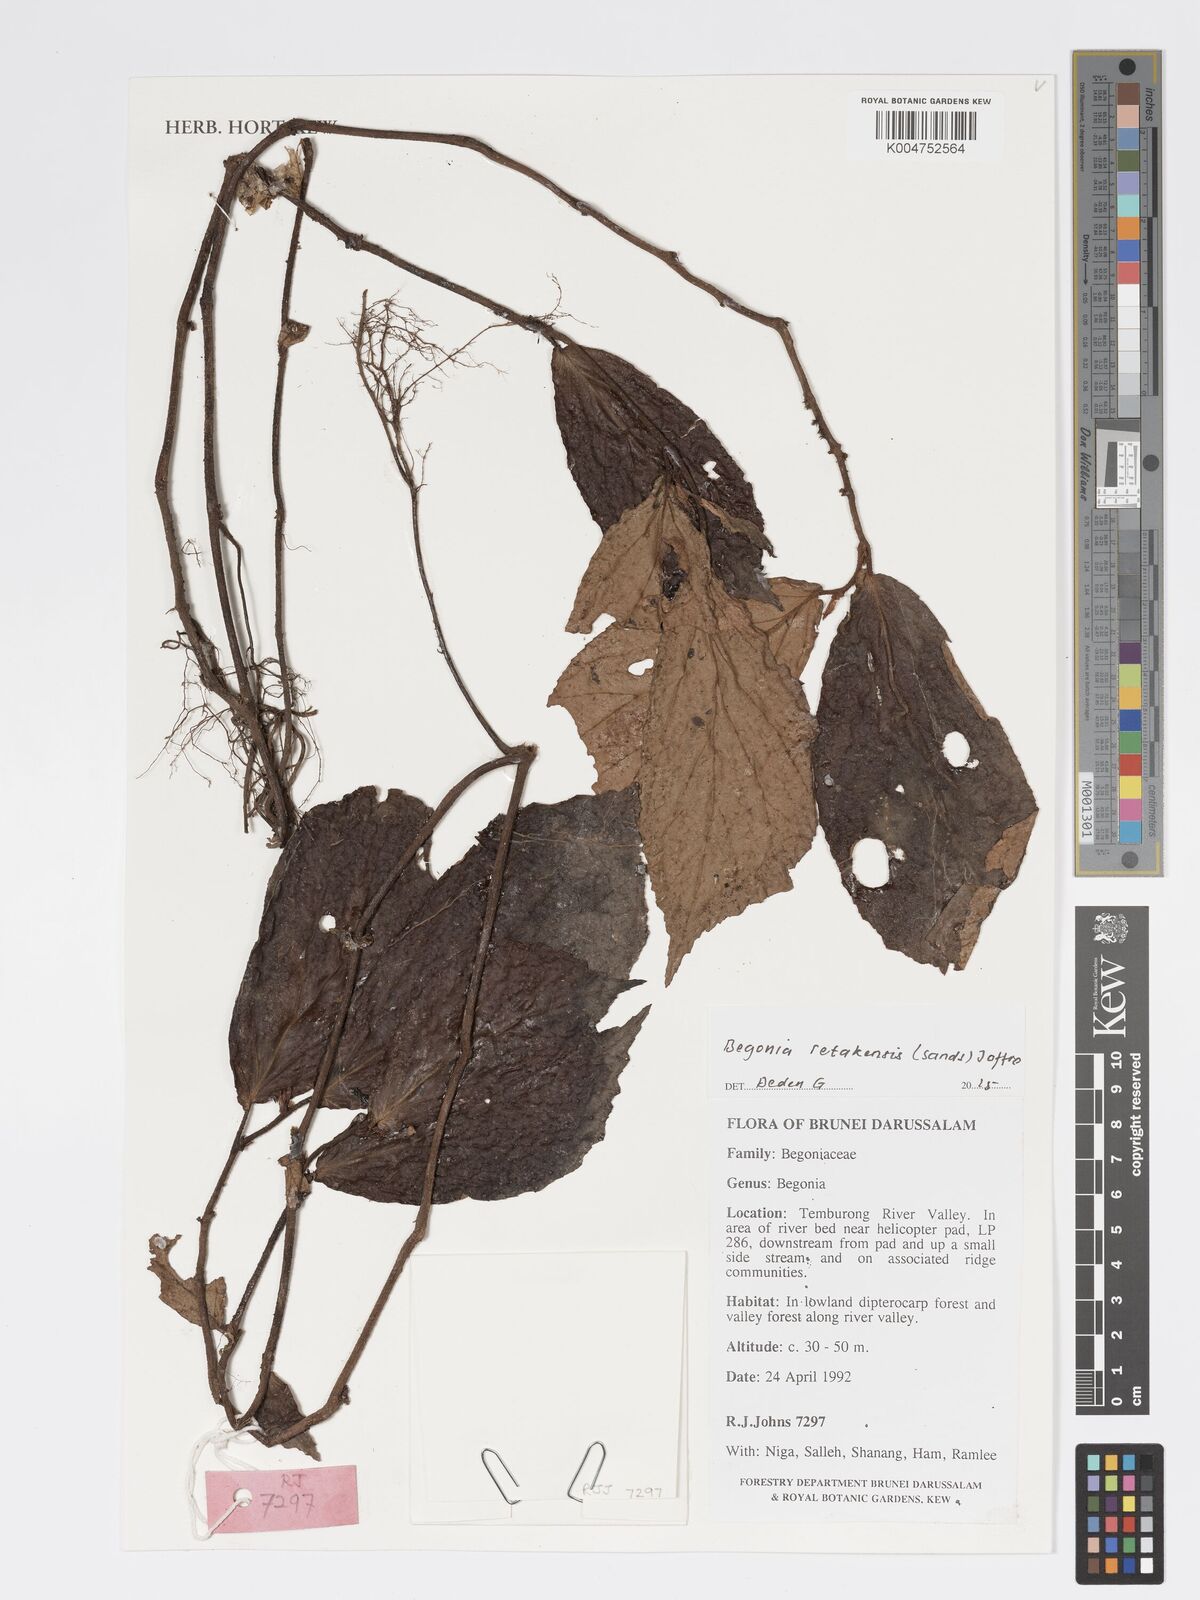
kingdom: Plantae
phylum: Tracheophyta
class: Magnoliopsida
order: Cucurbitales
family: Begoniaceae
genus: Begonia
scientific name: Begonia retakensis
